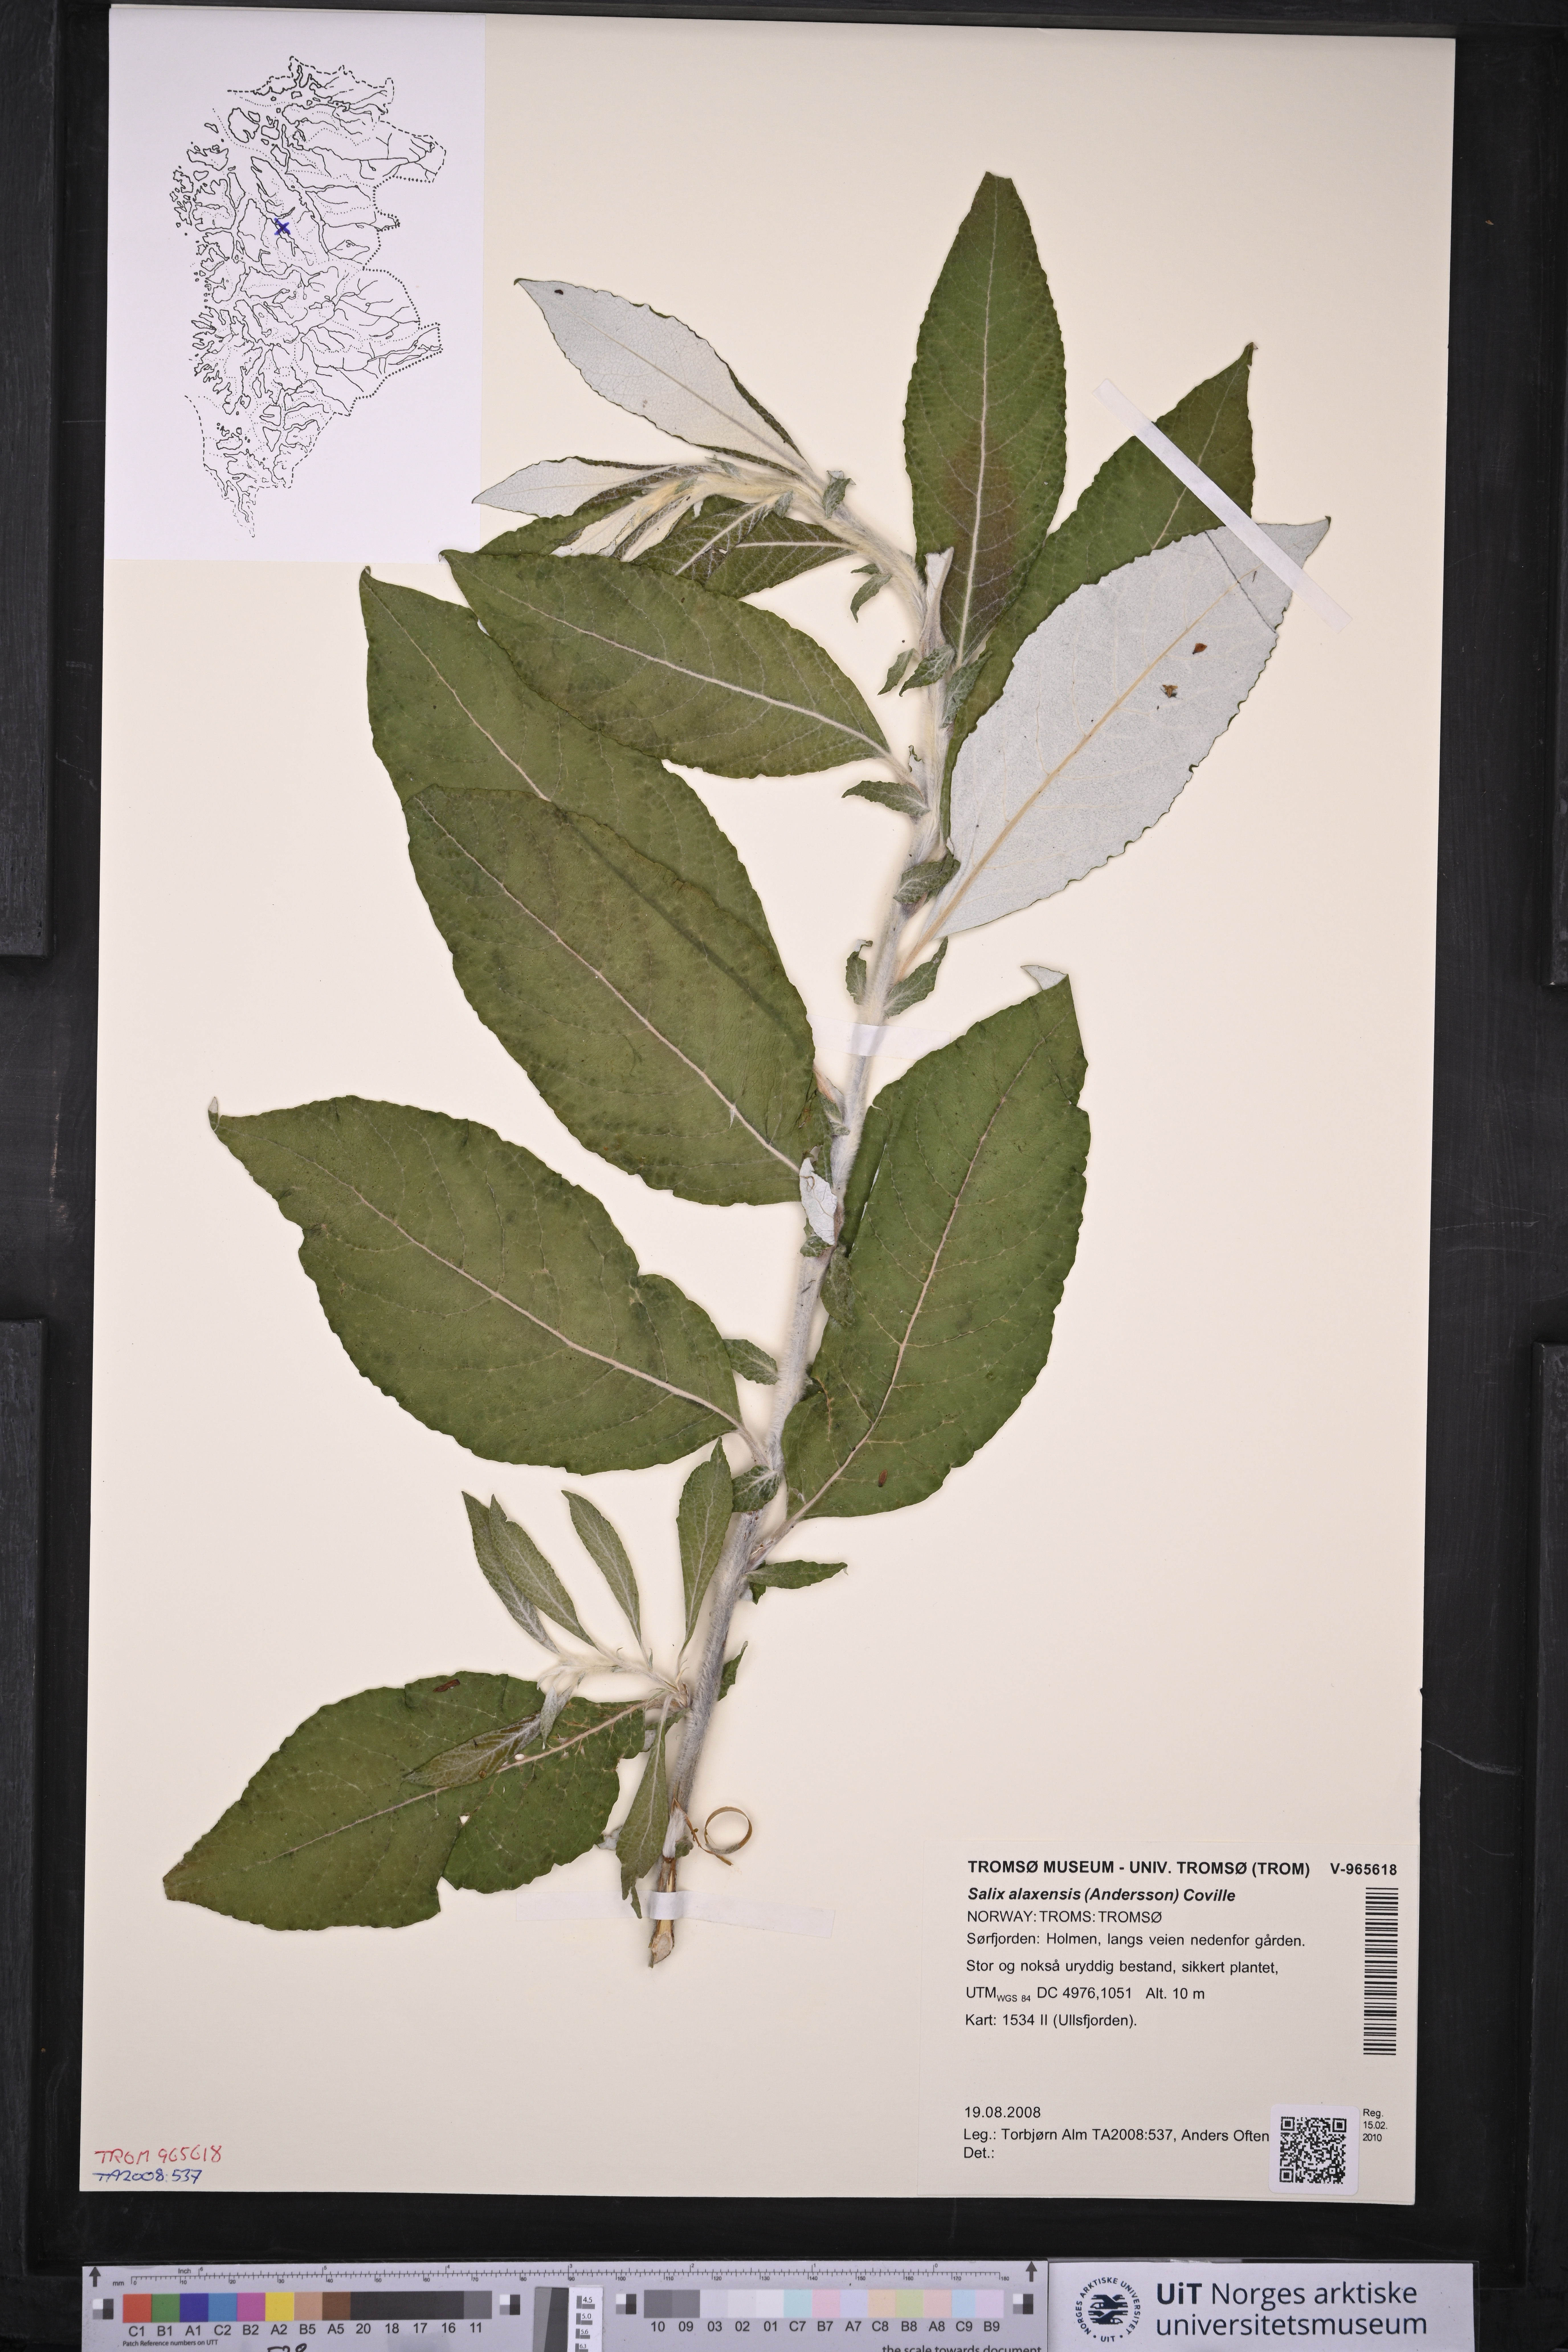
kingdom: Plantae
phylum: Tracheophyta
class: Magnoliopsida
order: Malpighiales
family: Salicaceae
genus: Salix
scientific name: Salix alaxensis
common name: Feltleaf willow
